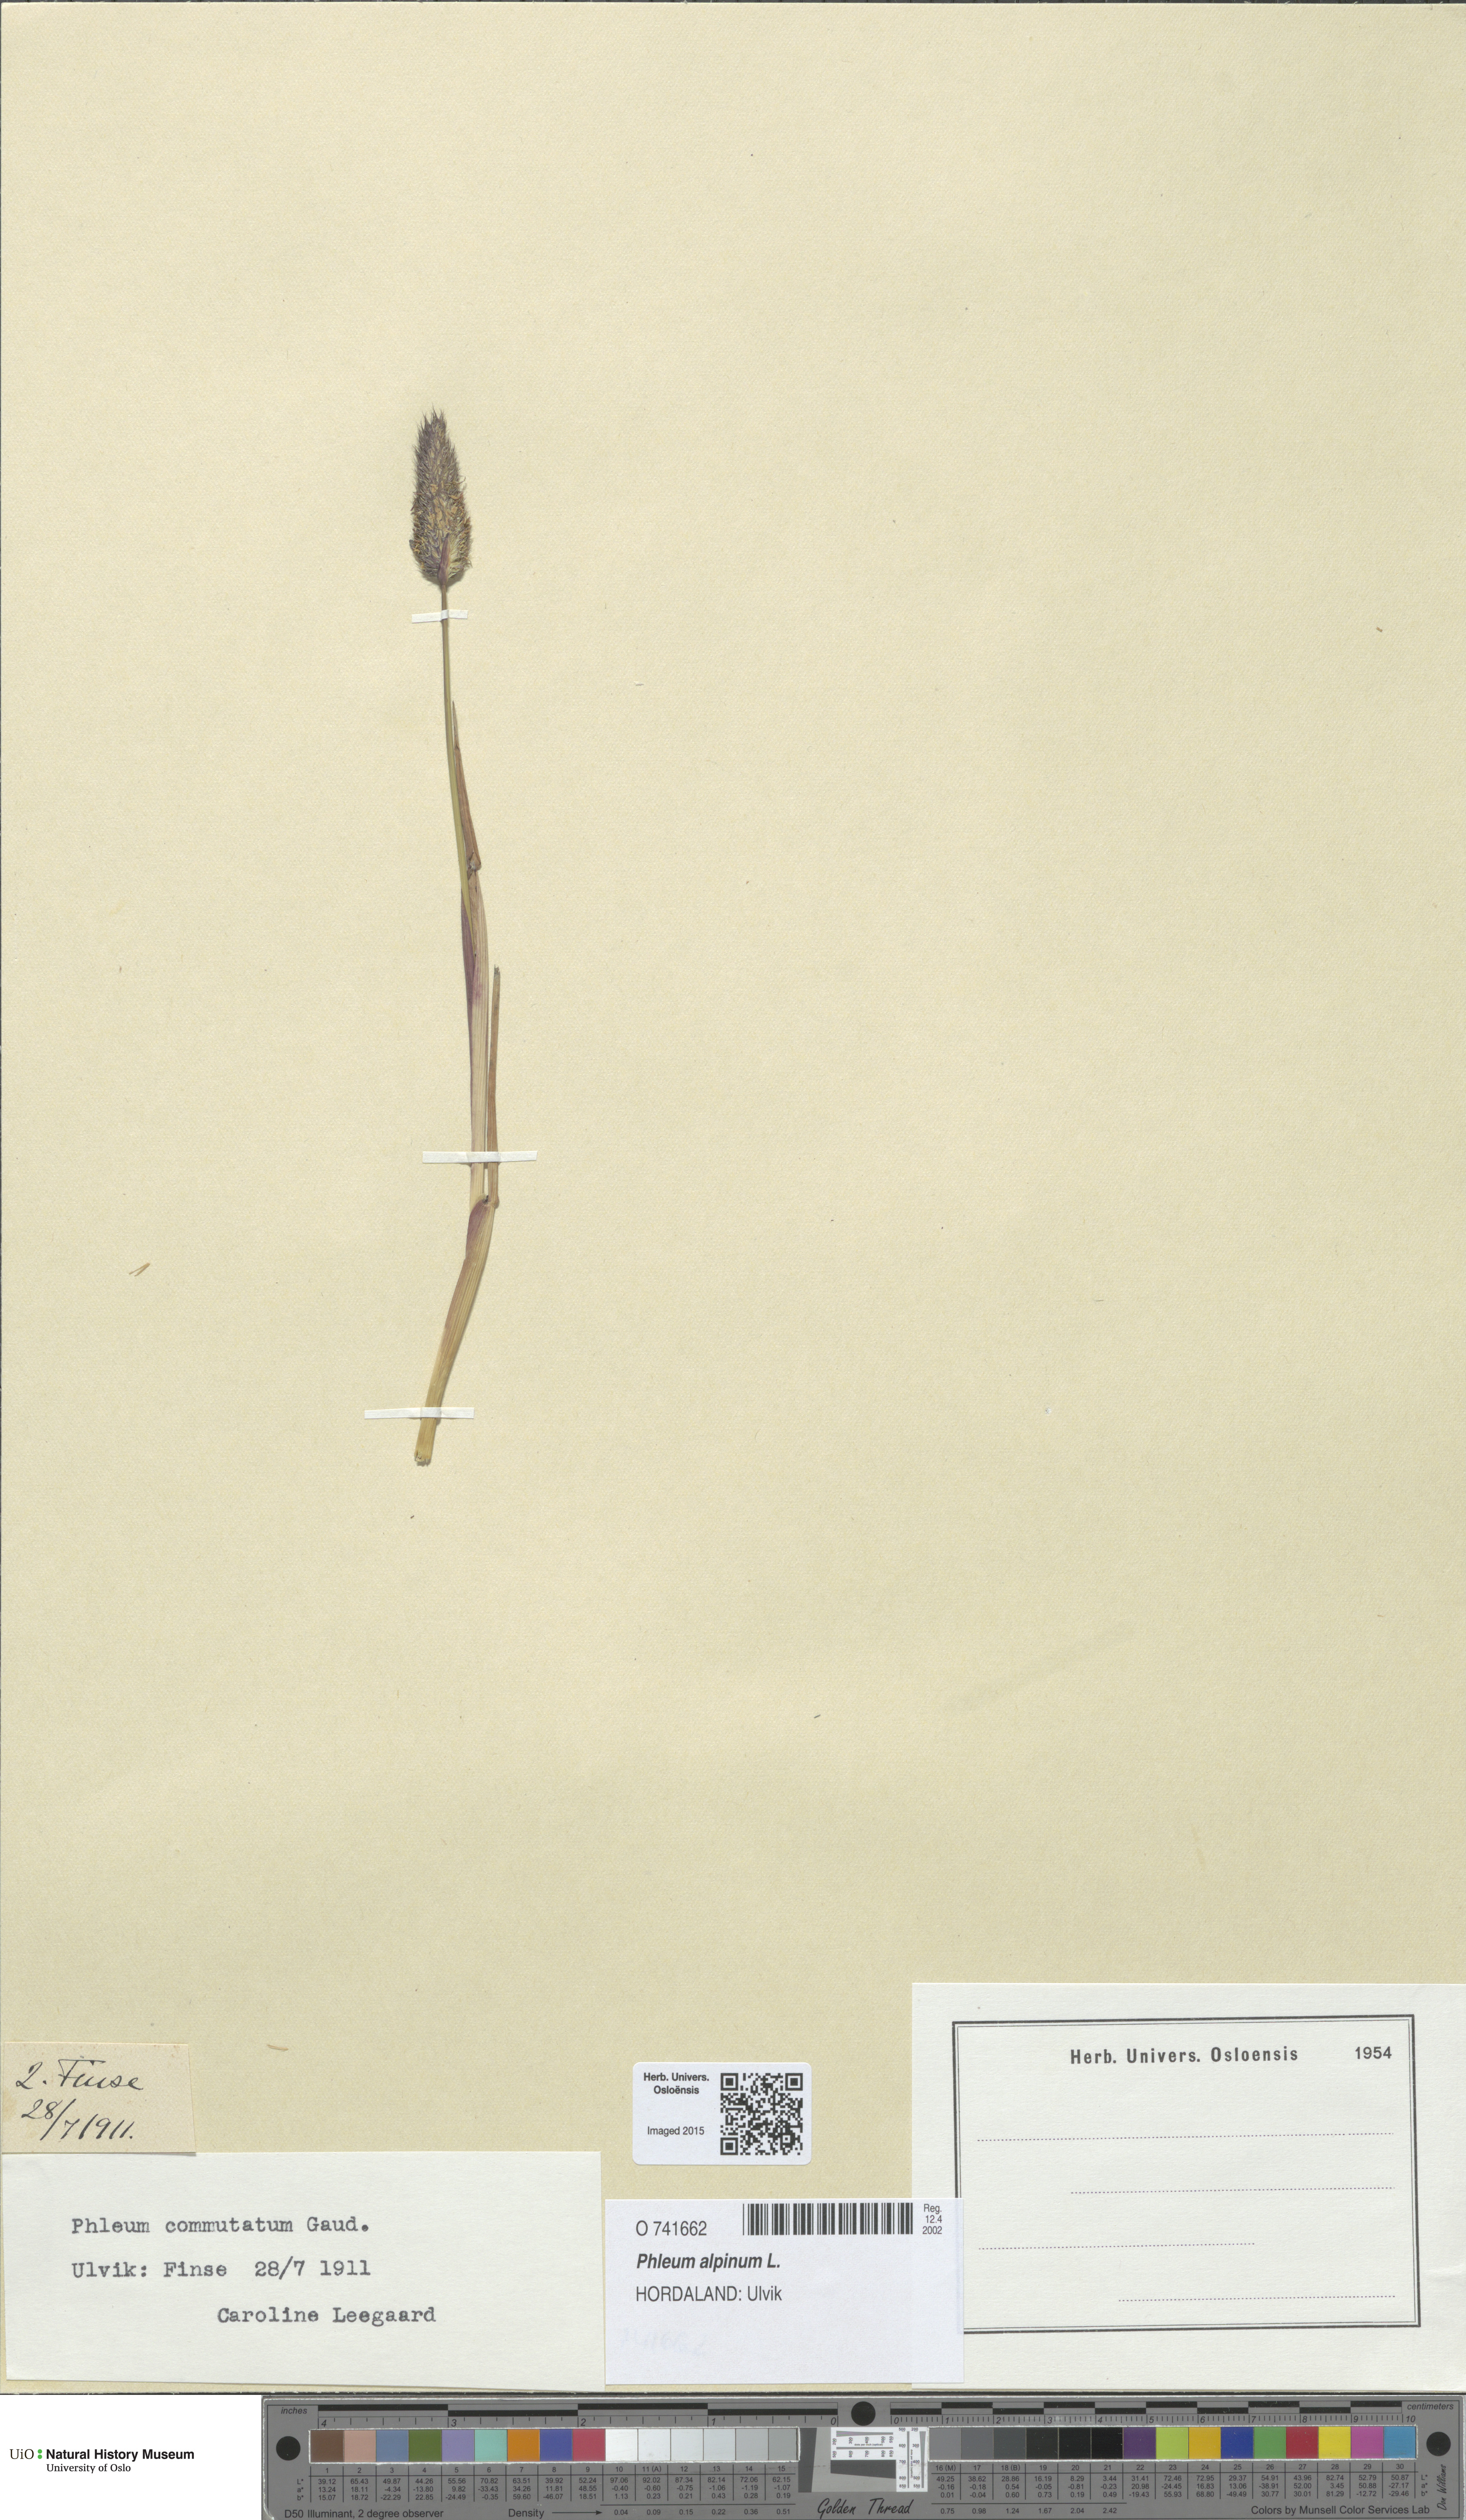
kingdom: Plantae
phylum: Tracheophyta
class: Liliopsida
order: Poales
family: Poaceae
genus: Phleum
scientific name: Phleum alpinum
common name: Alpine cat's-tail
